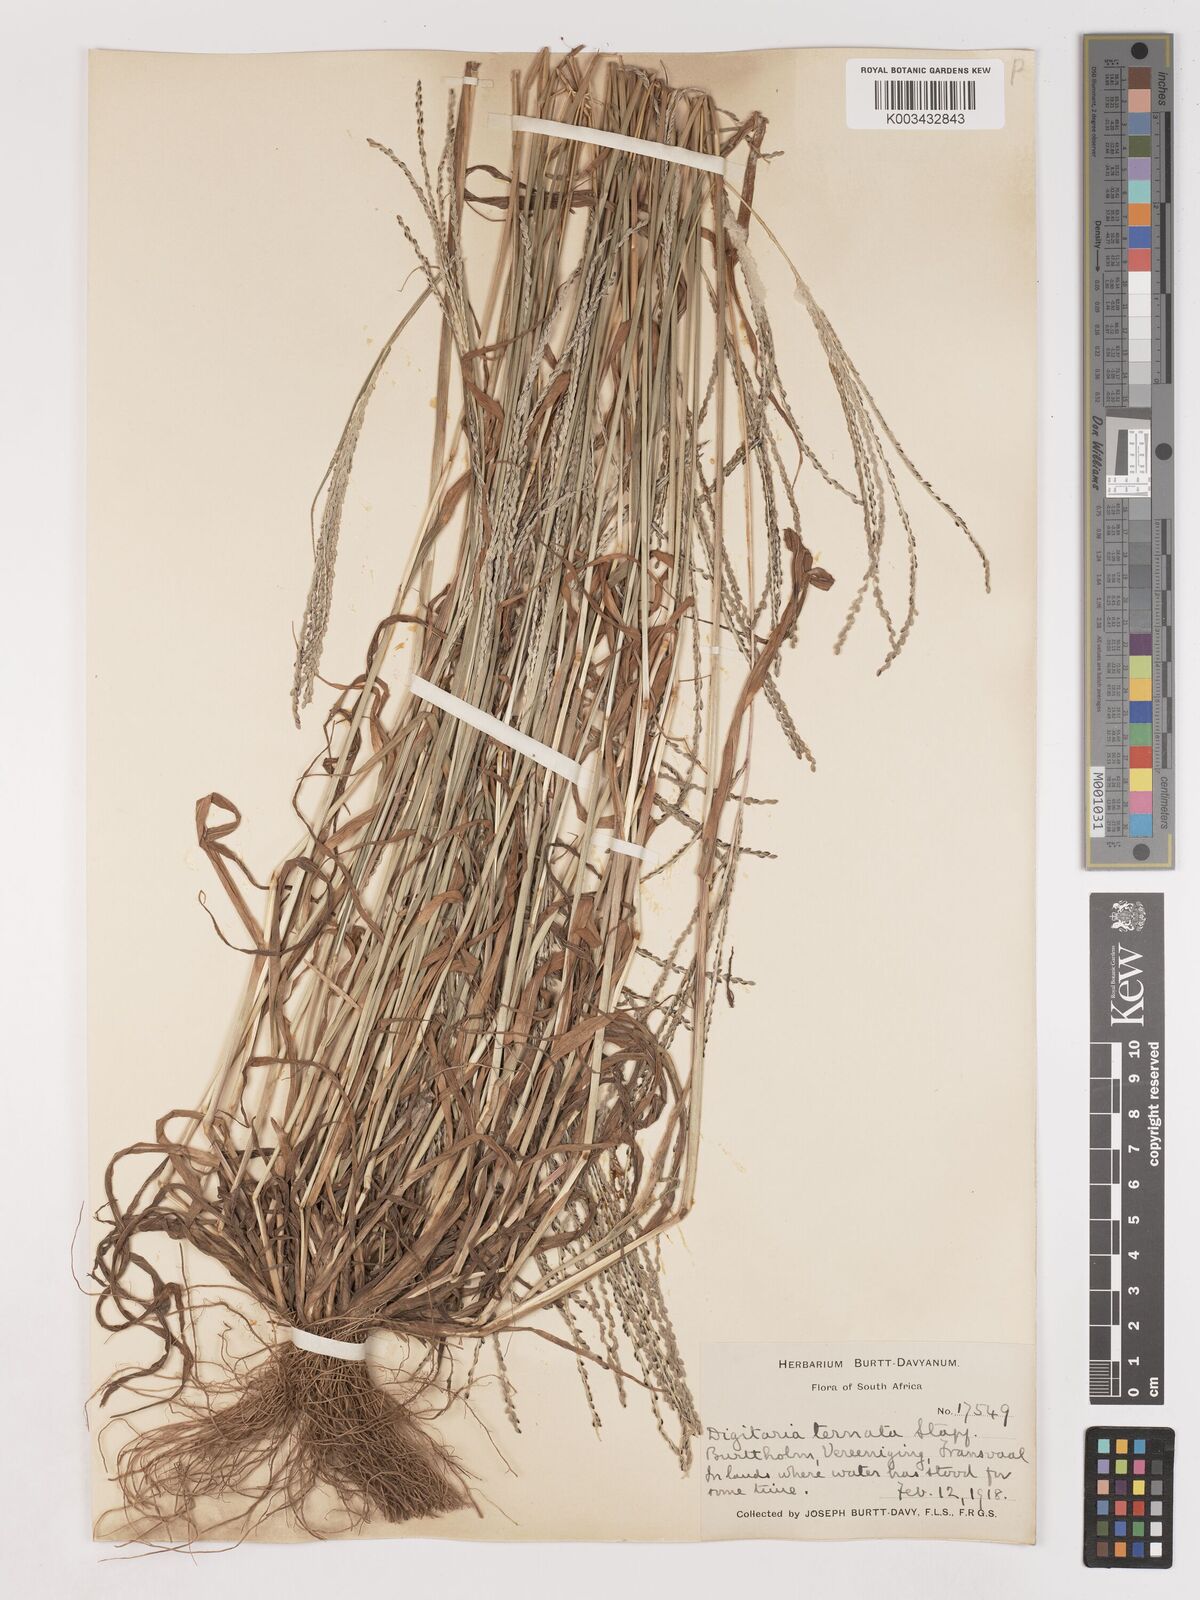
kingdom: Plantae
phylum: Tracheophyta
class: Liliopsida
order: Poales
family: Poaceae
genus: Digitaria
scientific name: Digitaria ternata
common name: Blackseed crabgrass
